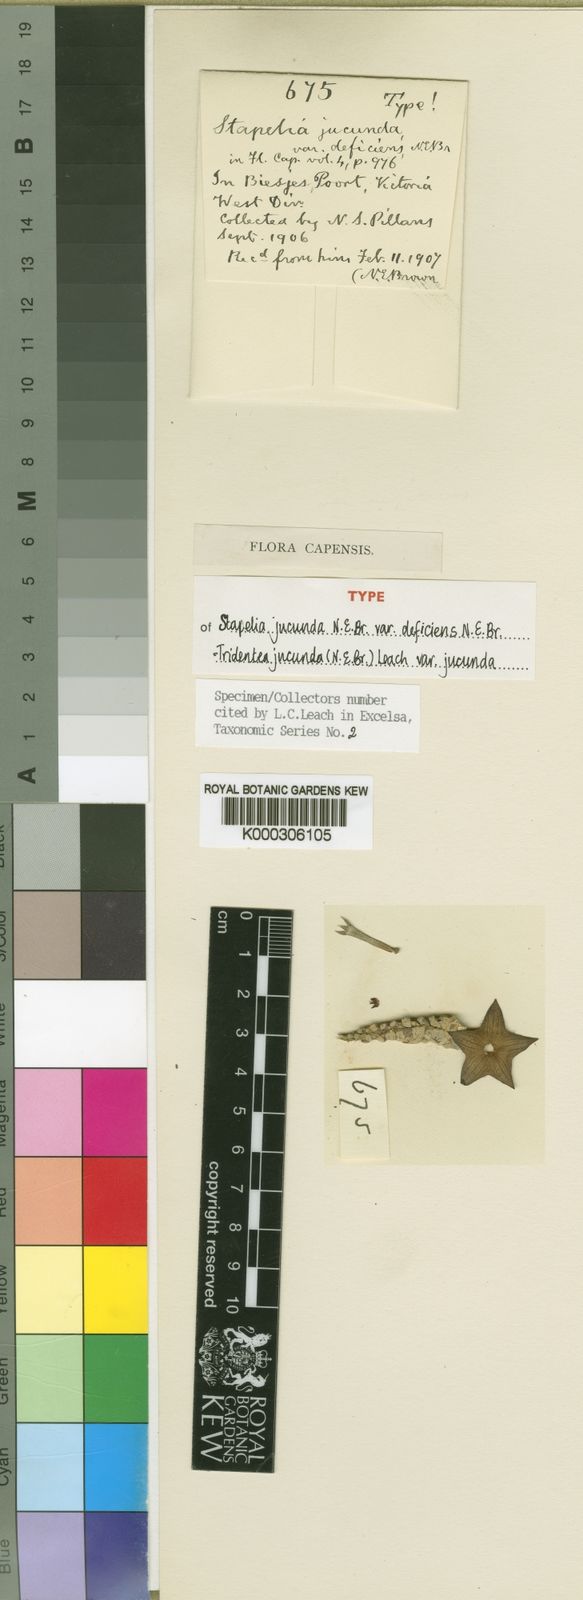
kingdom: Plantae
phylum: Tracheophyta
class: Magnoliopsida
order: Gentianales
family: Apocynaceae
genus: Ceropegia
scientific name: Ceropegia ausana
